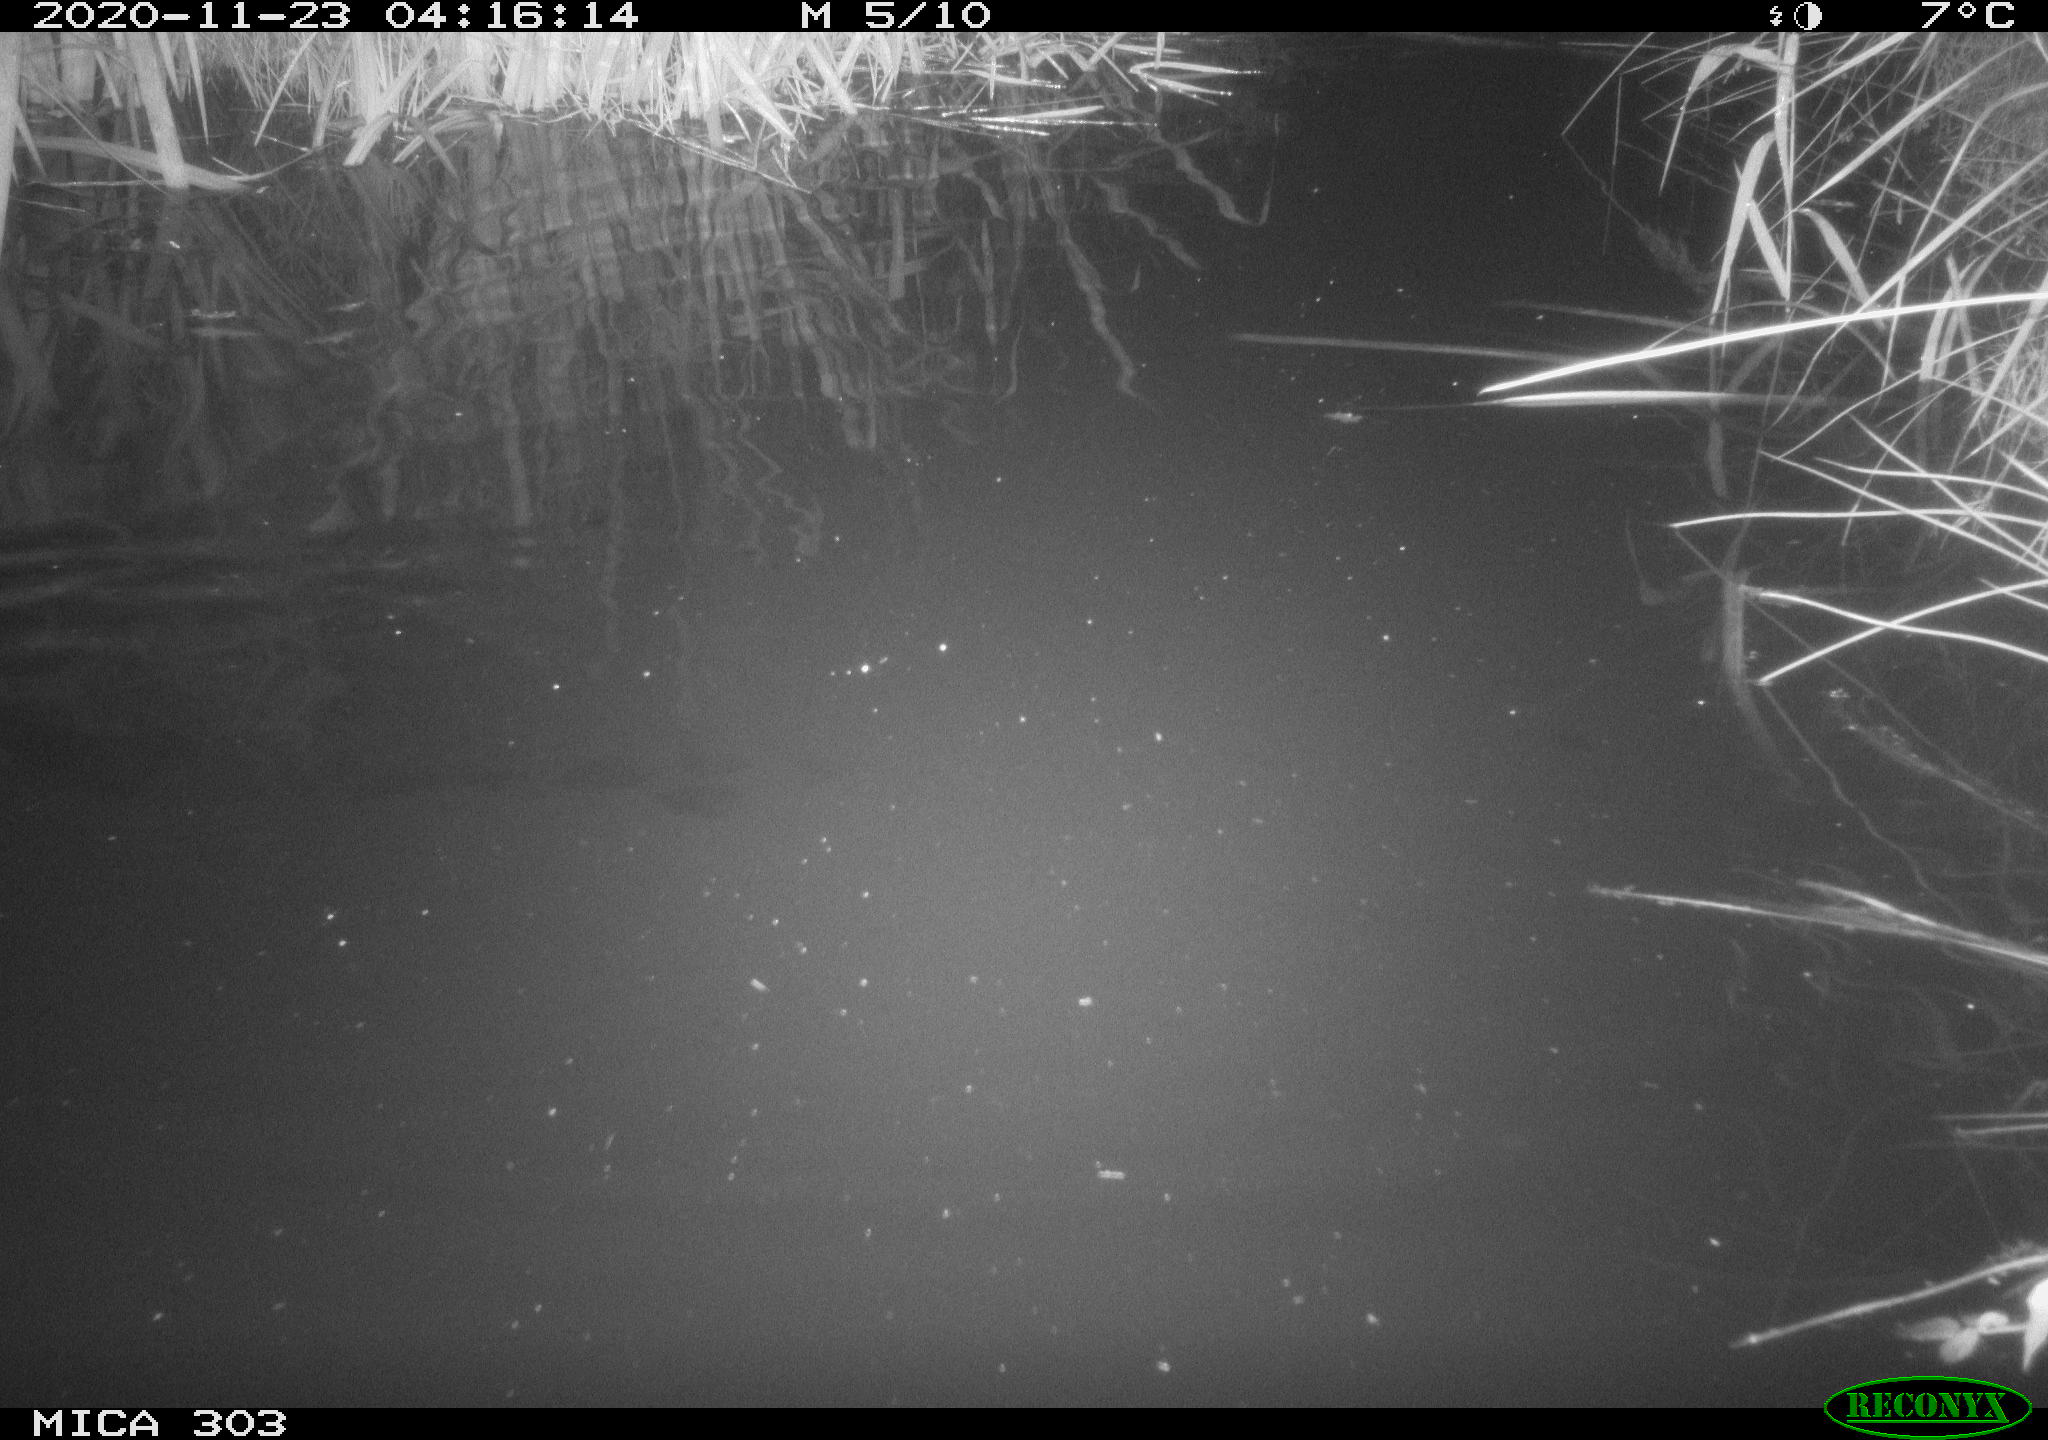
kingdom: Animalia
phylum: Chordata
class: Mammalia
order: Rodentia
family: Muridae
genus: Rattus
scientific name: Rattus norvegicus
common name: Brown rat
